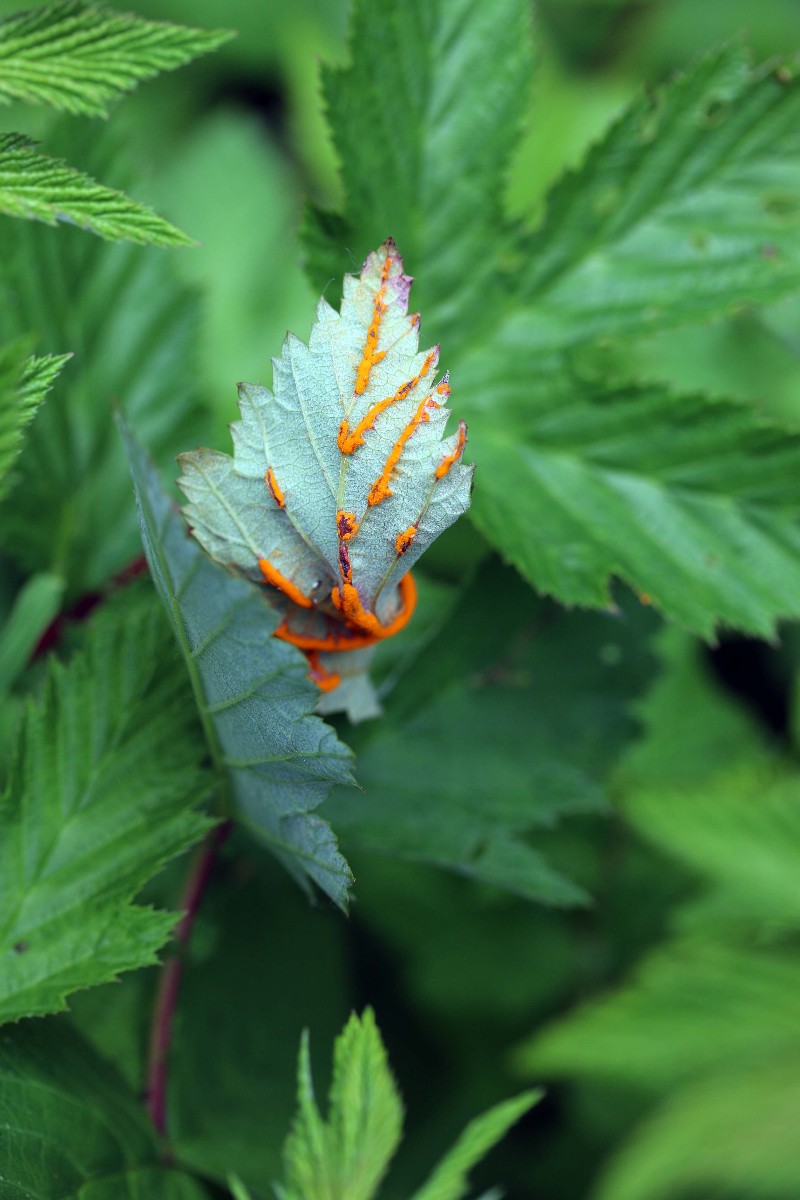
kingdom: Fungi
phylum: Basidiomycota
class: Pucciniomycetes
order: Pucciniales
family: Raveneliaceae
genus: Triphragmium
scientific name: Triphragmium ulmariae
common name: almindelig mjødurtrust
